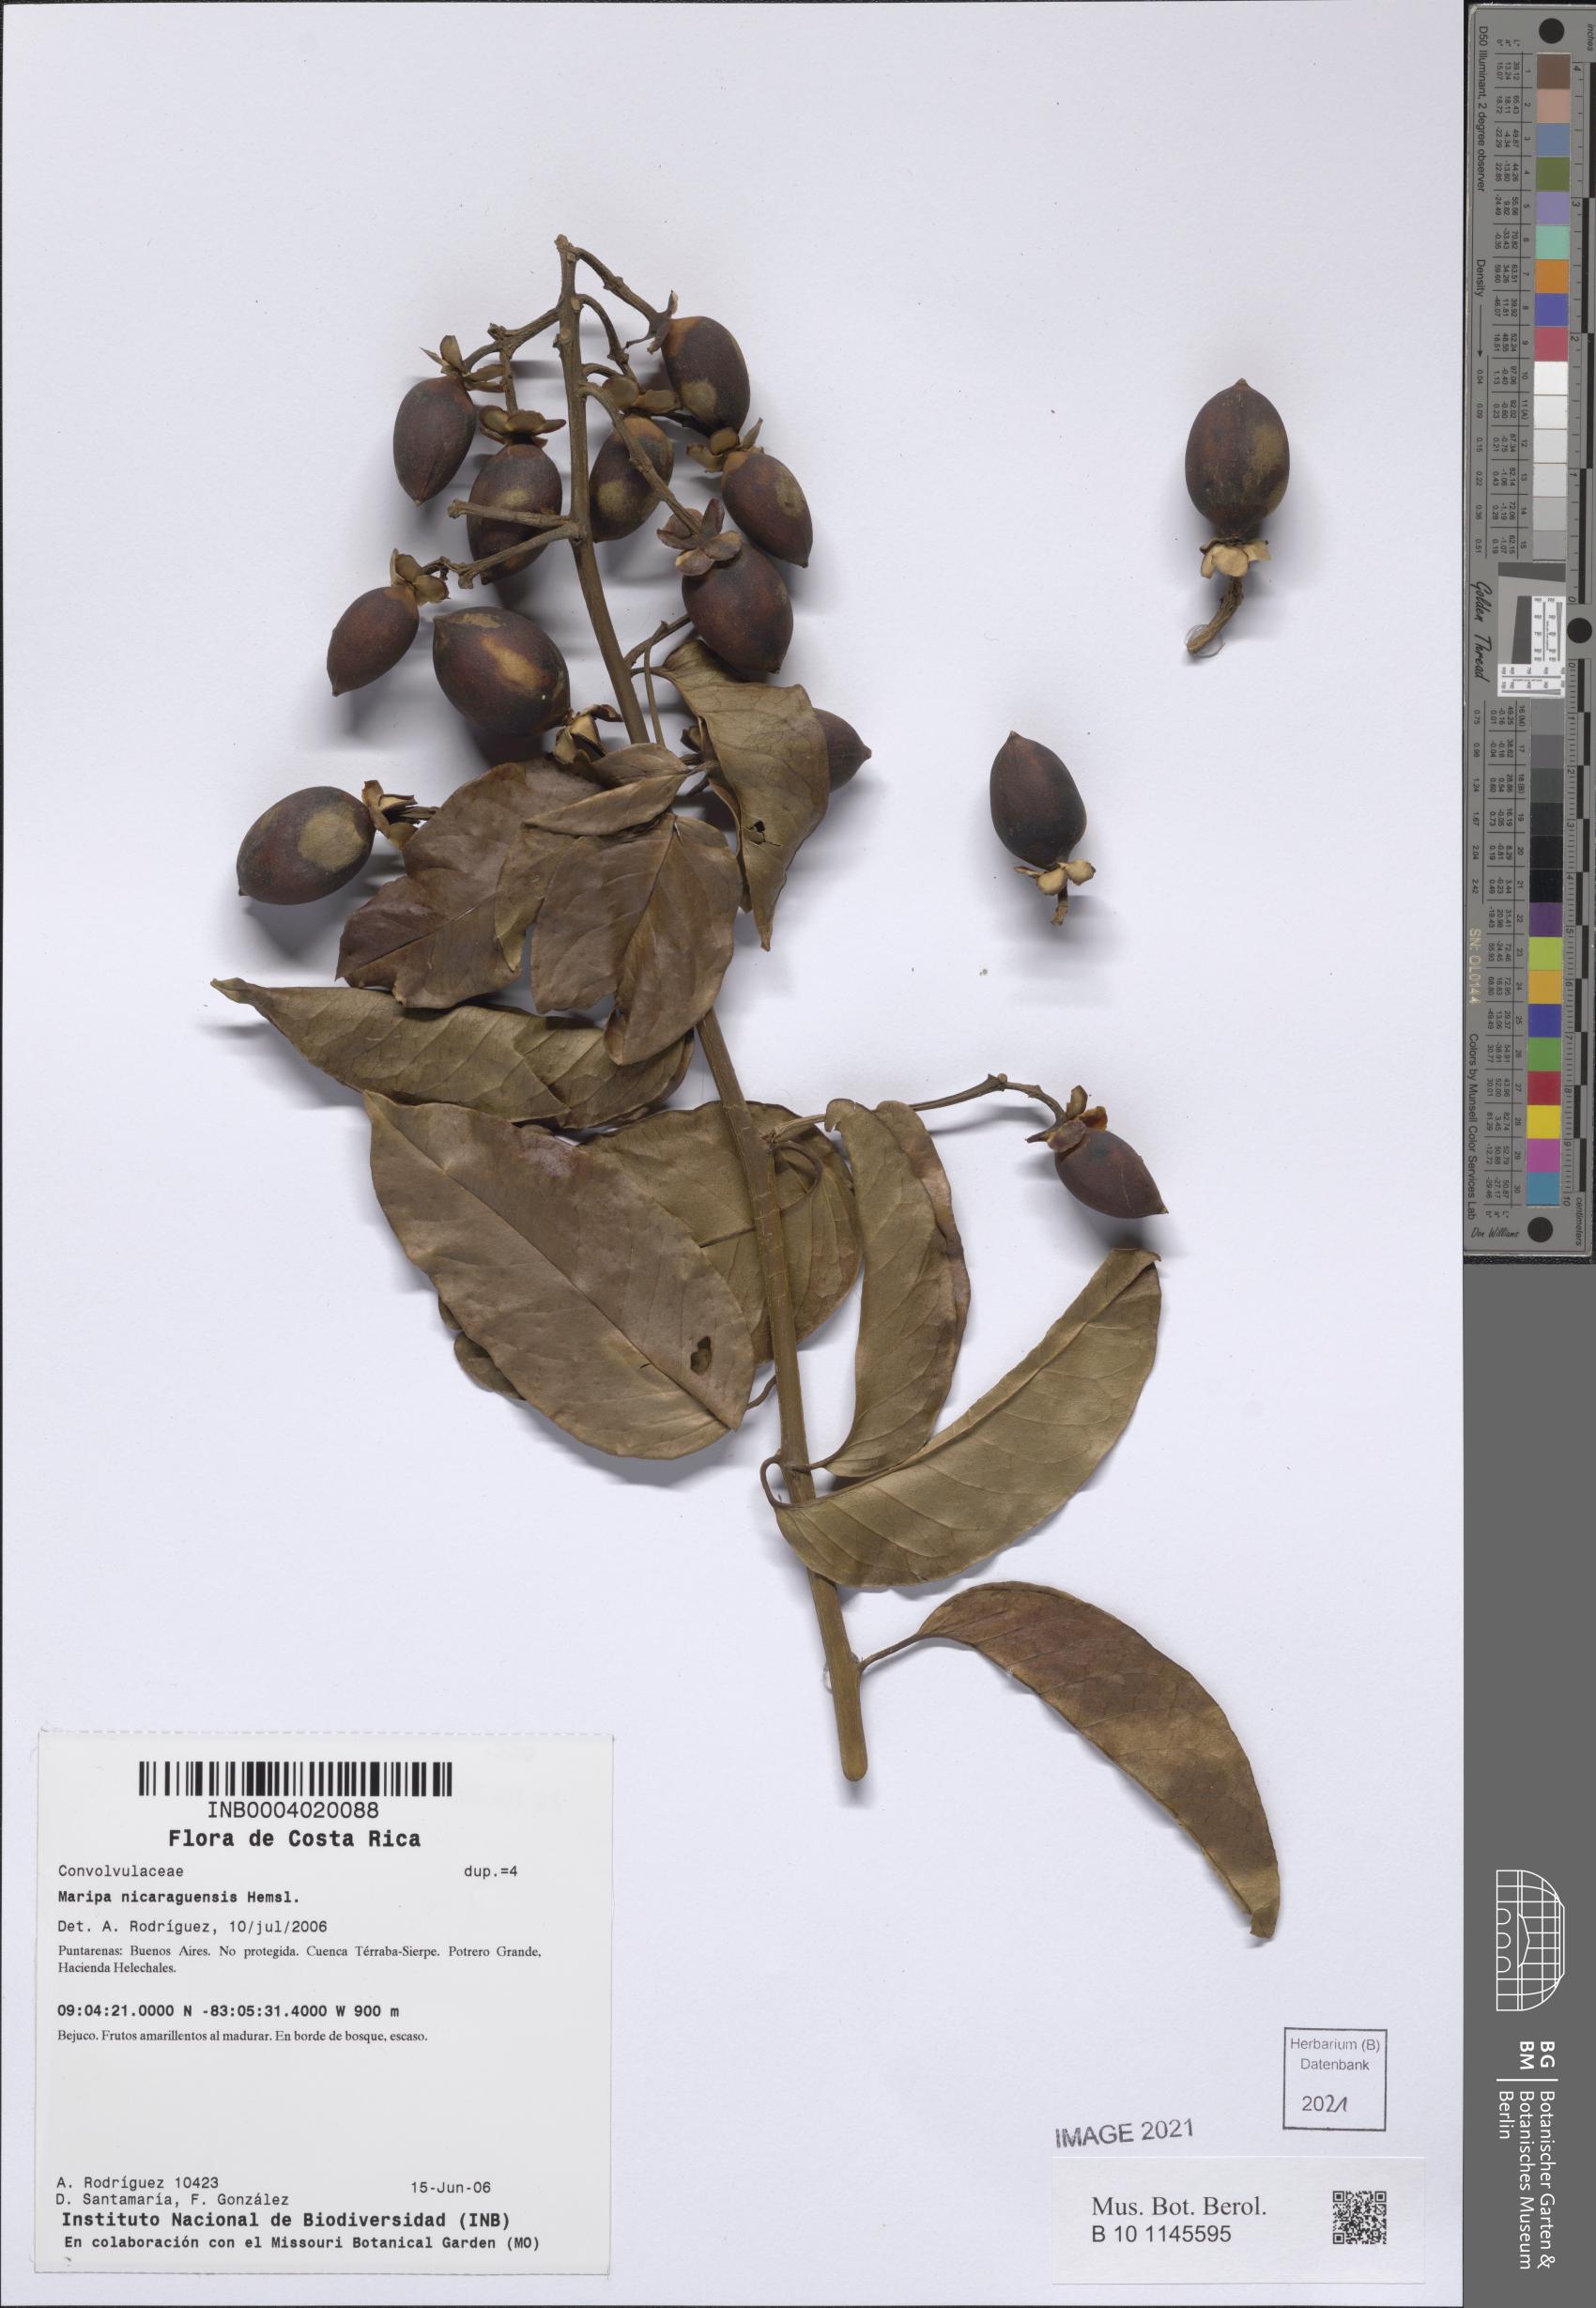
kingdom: Plantae
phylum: Tracheophyta
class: Magnoliopsida
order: Solanales
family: Convolvulaceae
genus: Maripa
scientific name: Maripa nicaraguensis
